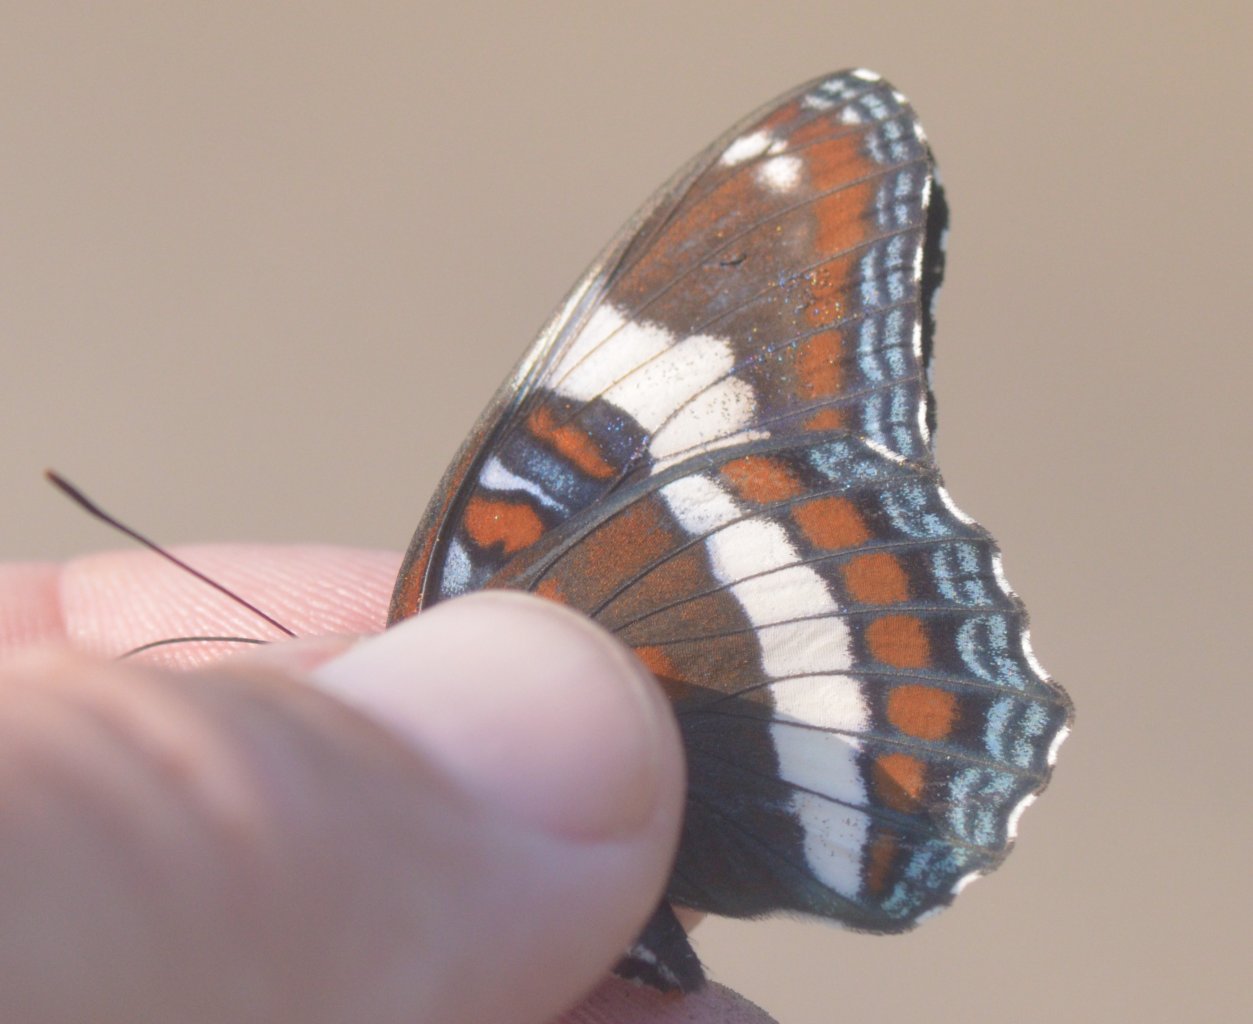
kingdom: Animalia
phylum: Arthropoda
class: Insecta
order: Lepidoptera
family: Nymphalidae
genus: Limenitis
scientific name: Limenitis arthemis
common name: Red-spotted Admiral
